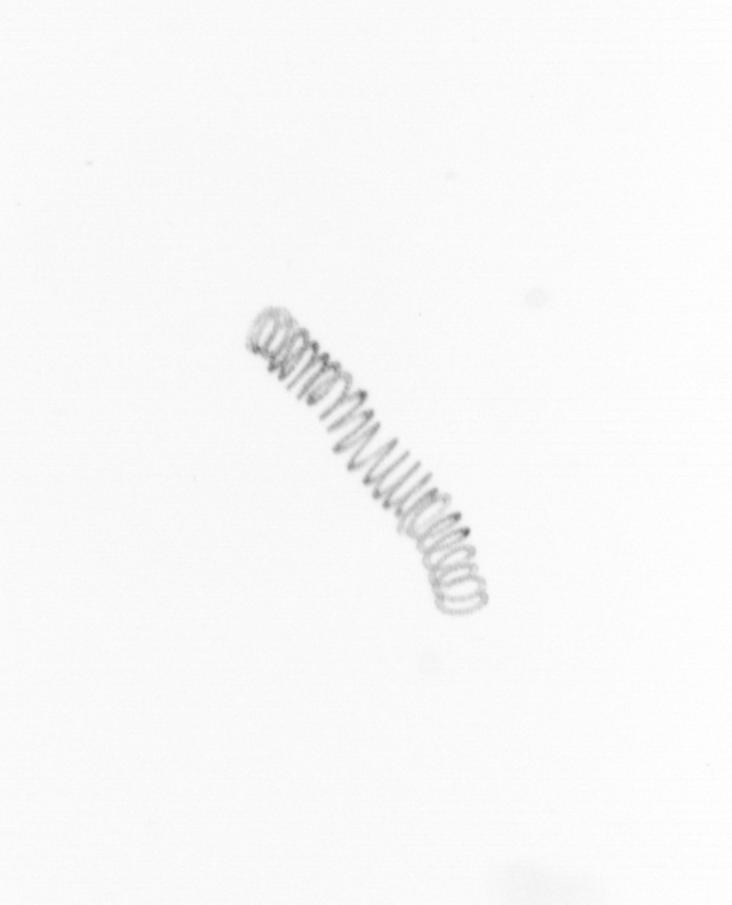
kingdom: Chromista
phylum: Ochrophyta
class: Bacillariophyceae
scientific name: Bacillariophyceae
